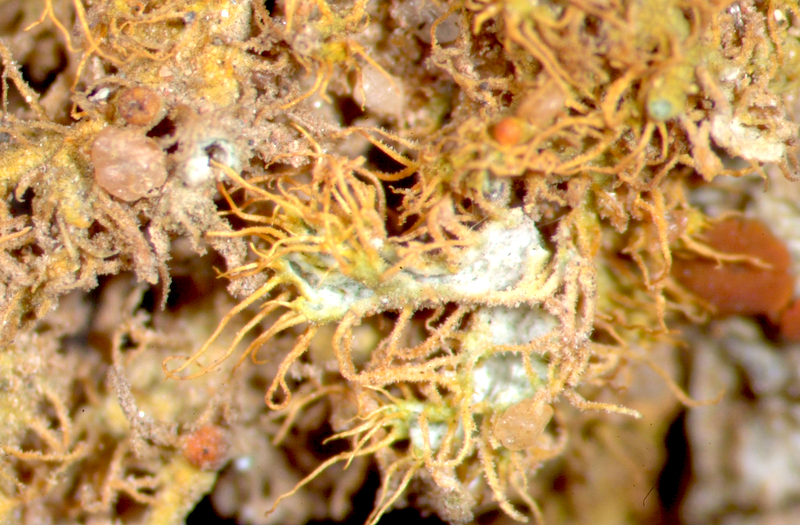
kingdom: Fungi
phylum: Ascomycota
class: Lecanoromycetes
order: Teloschistales
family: Teloschistaceae
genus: Niorma
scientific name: Niorma chrysophthalma
